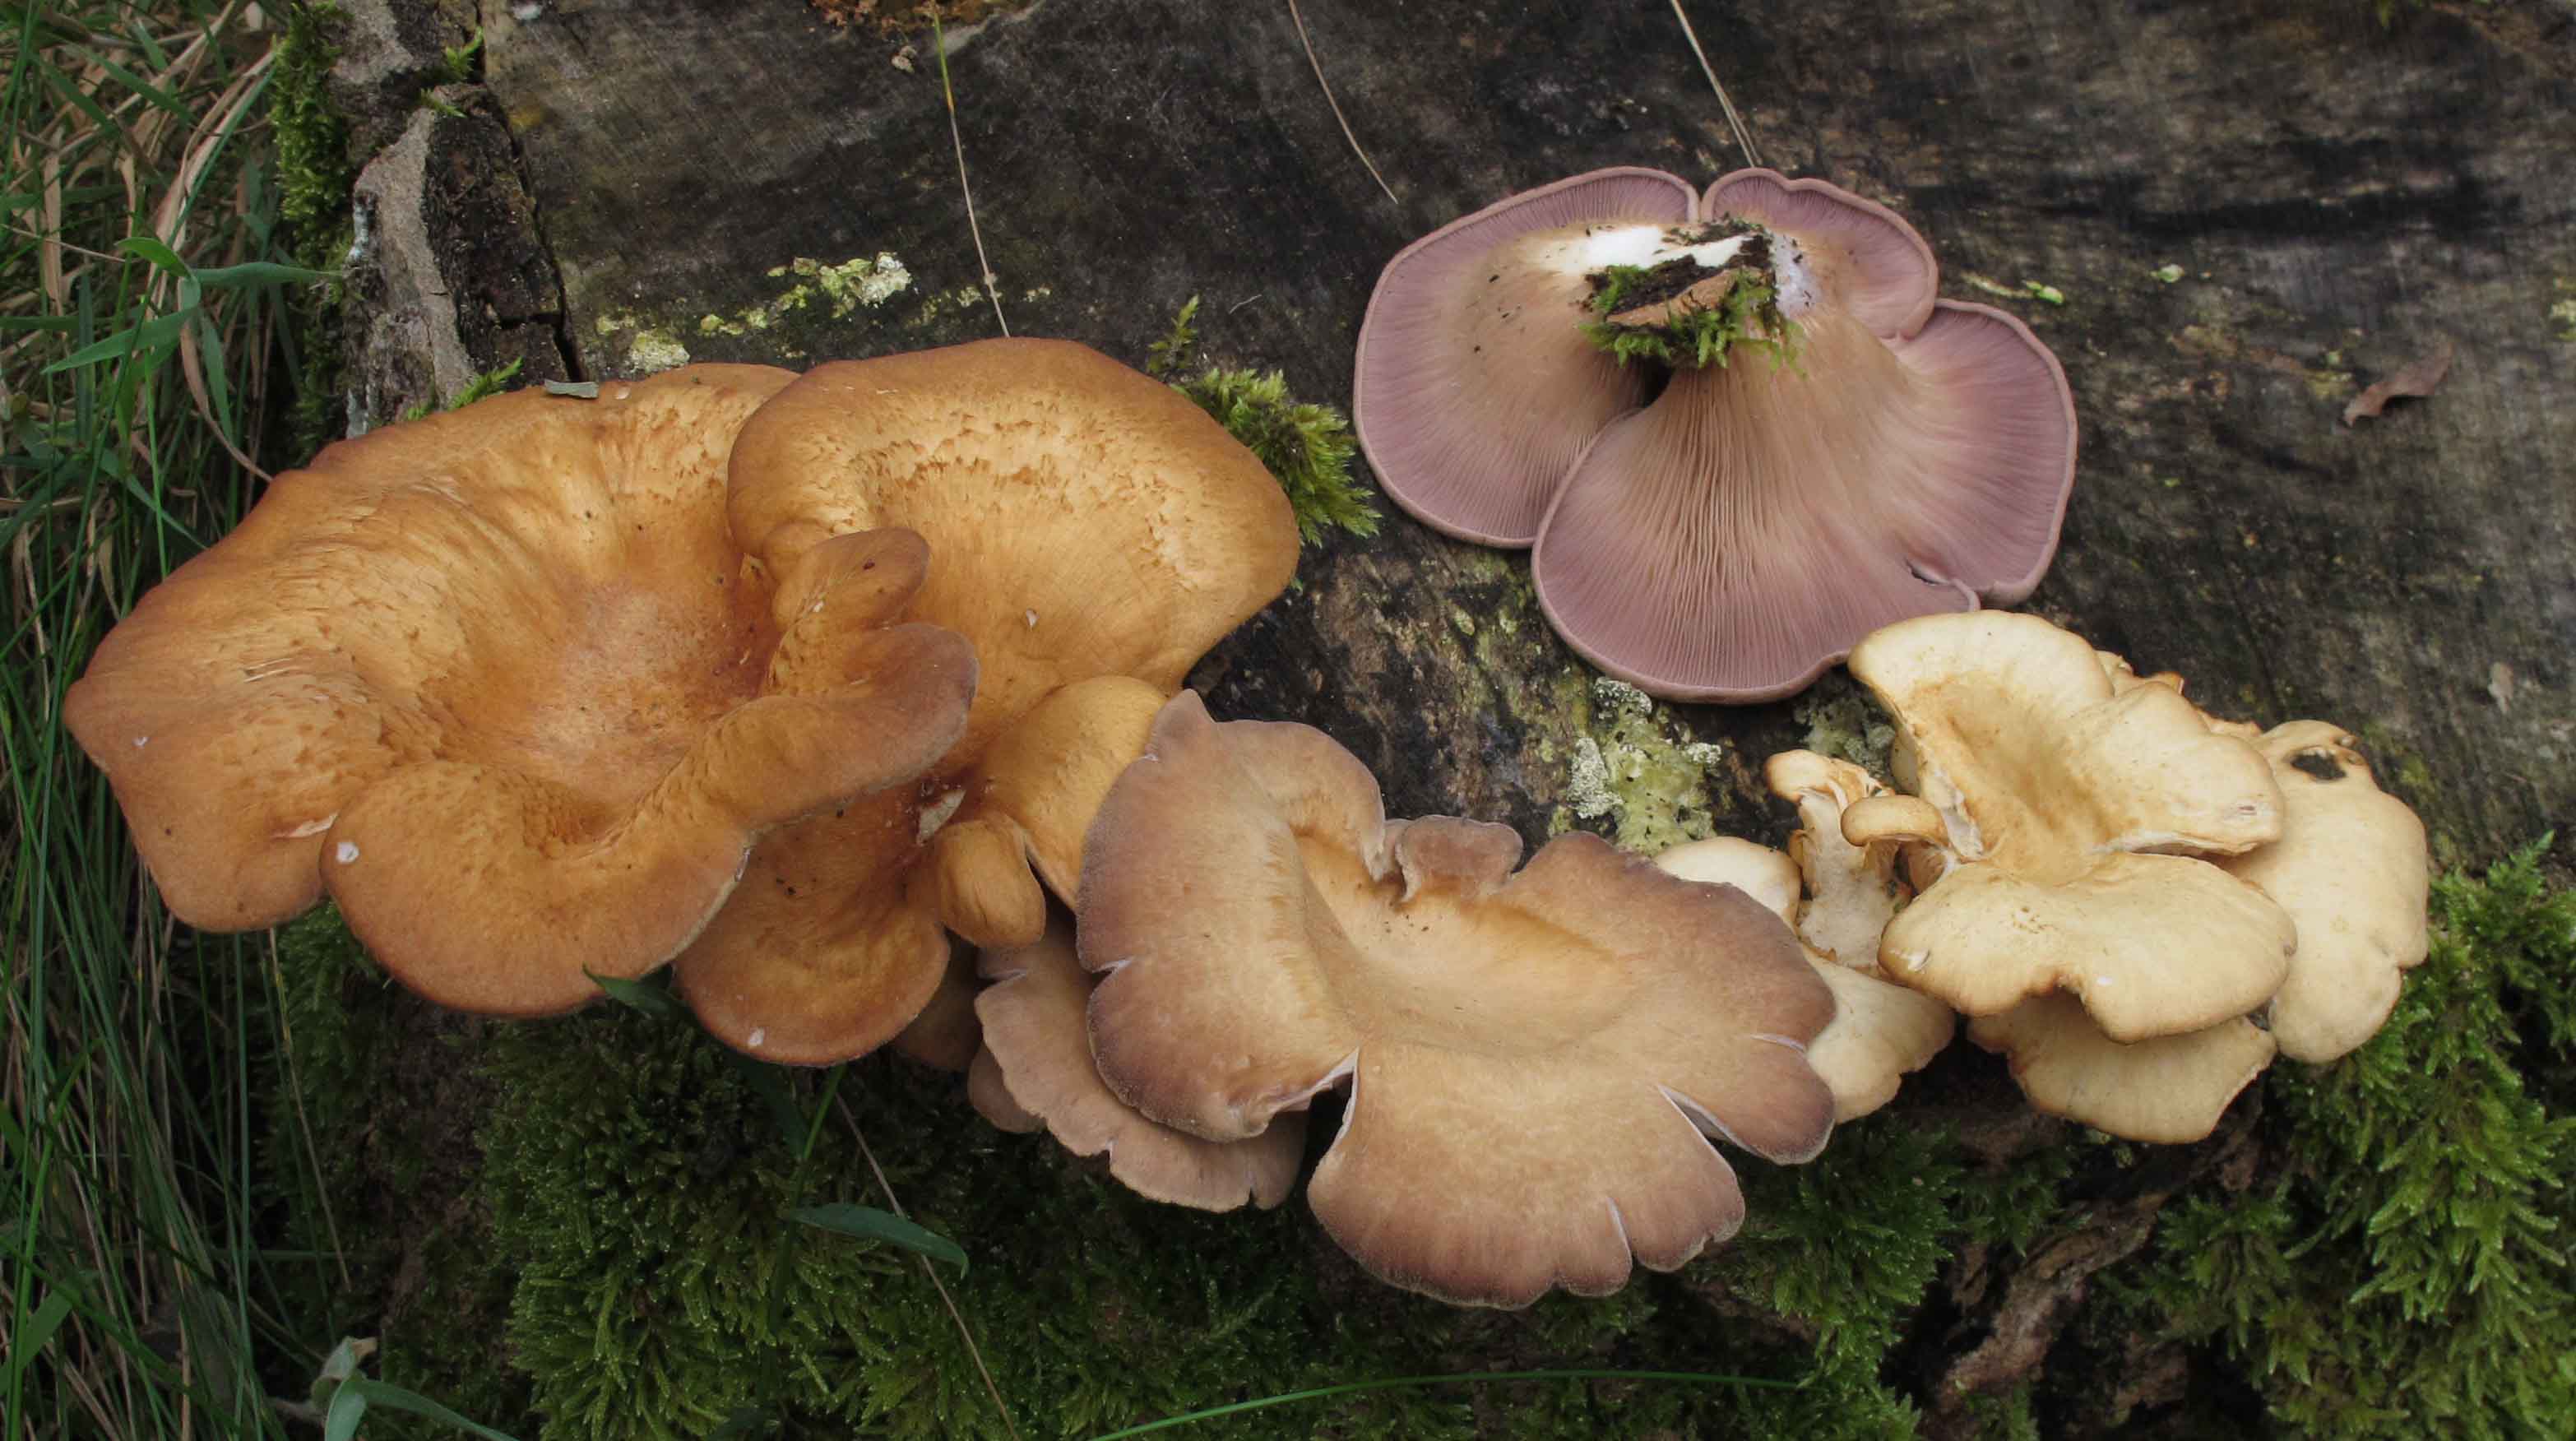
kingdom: Fungi
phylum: Basidiomycota
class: Agaricomycetes
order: Polyporales
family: Panaceae
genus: Panus
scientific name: Panus conchatus
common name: filtstokket læderhat
